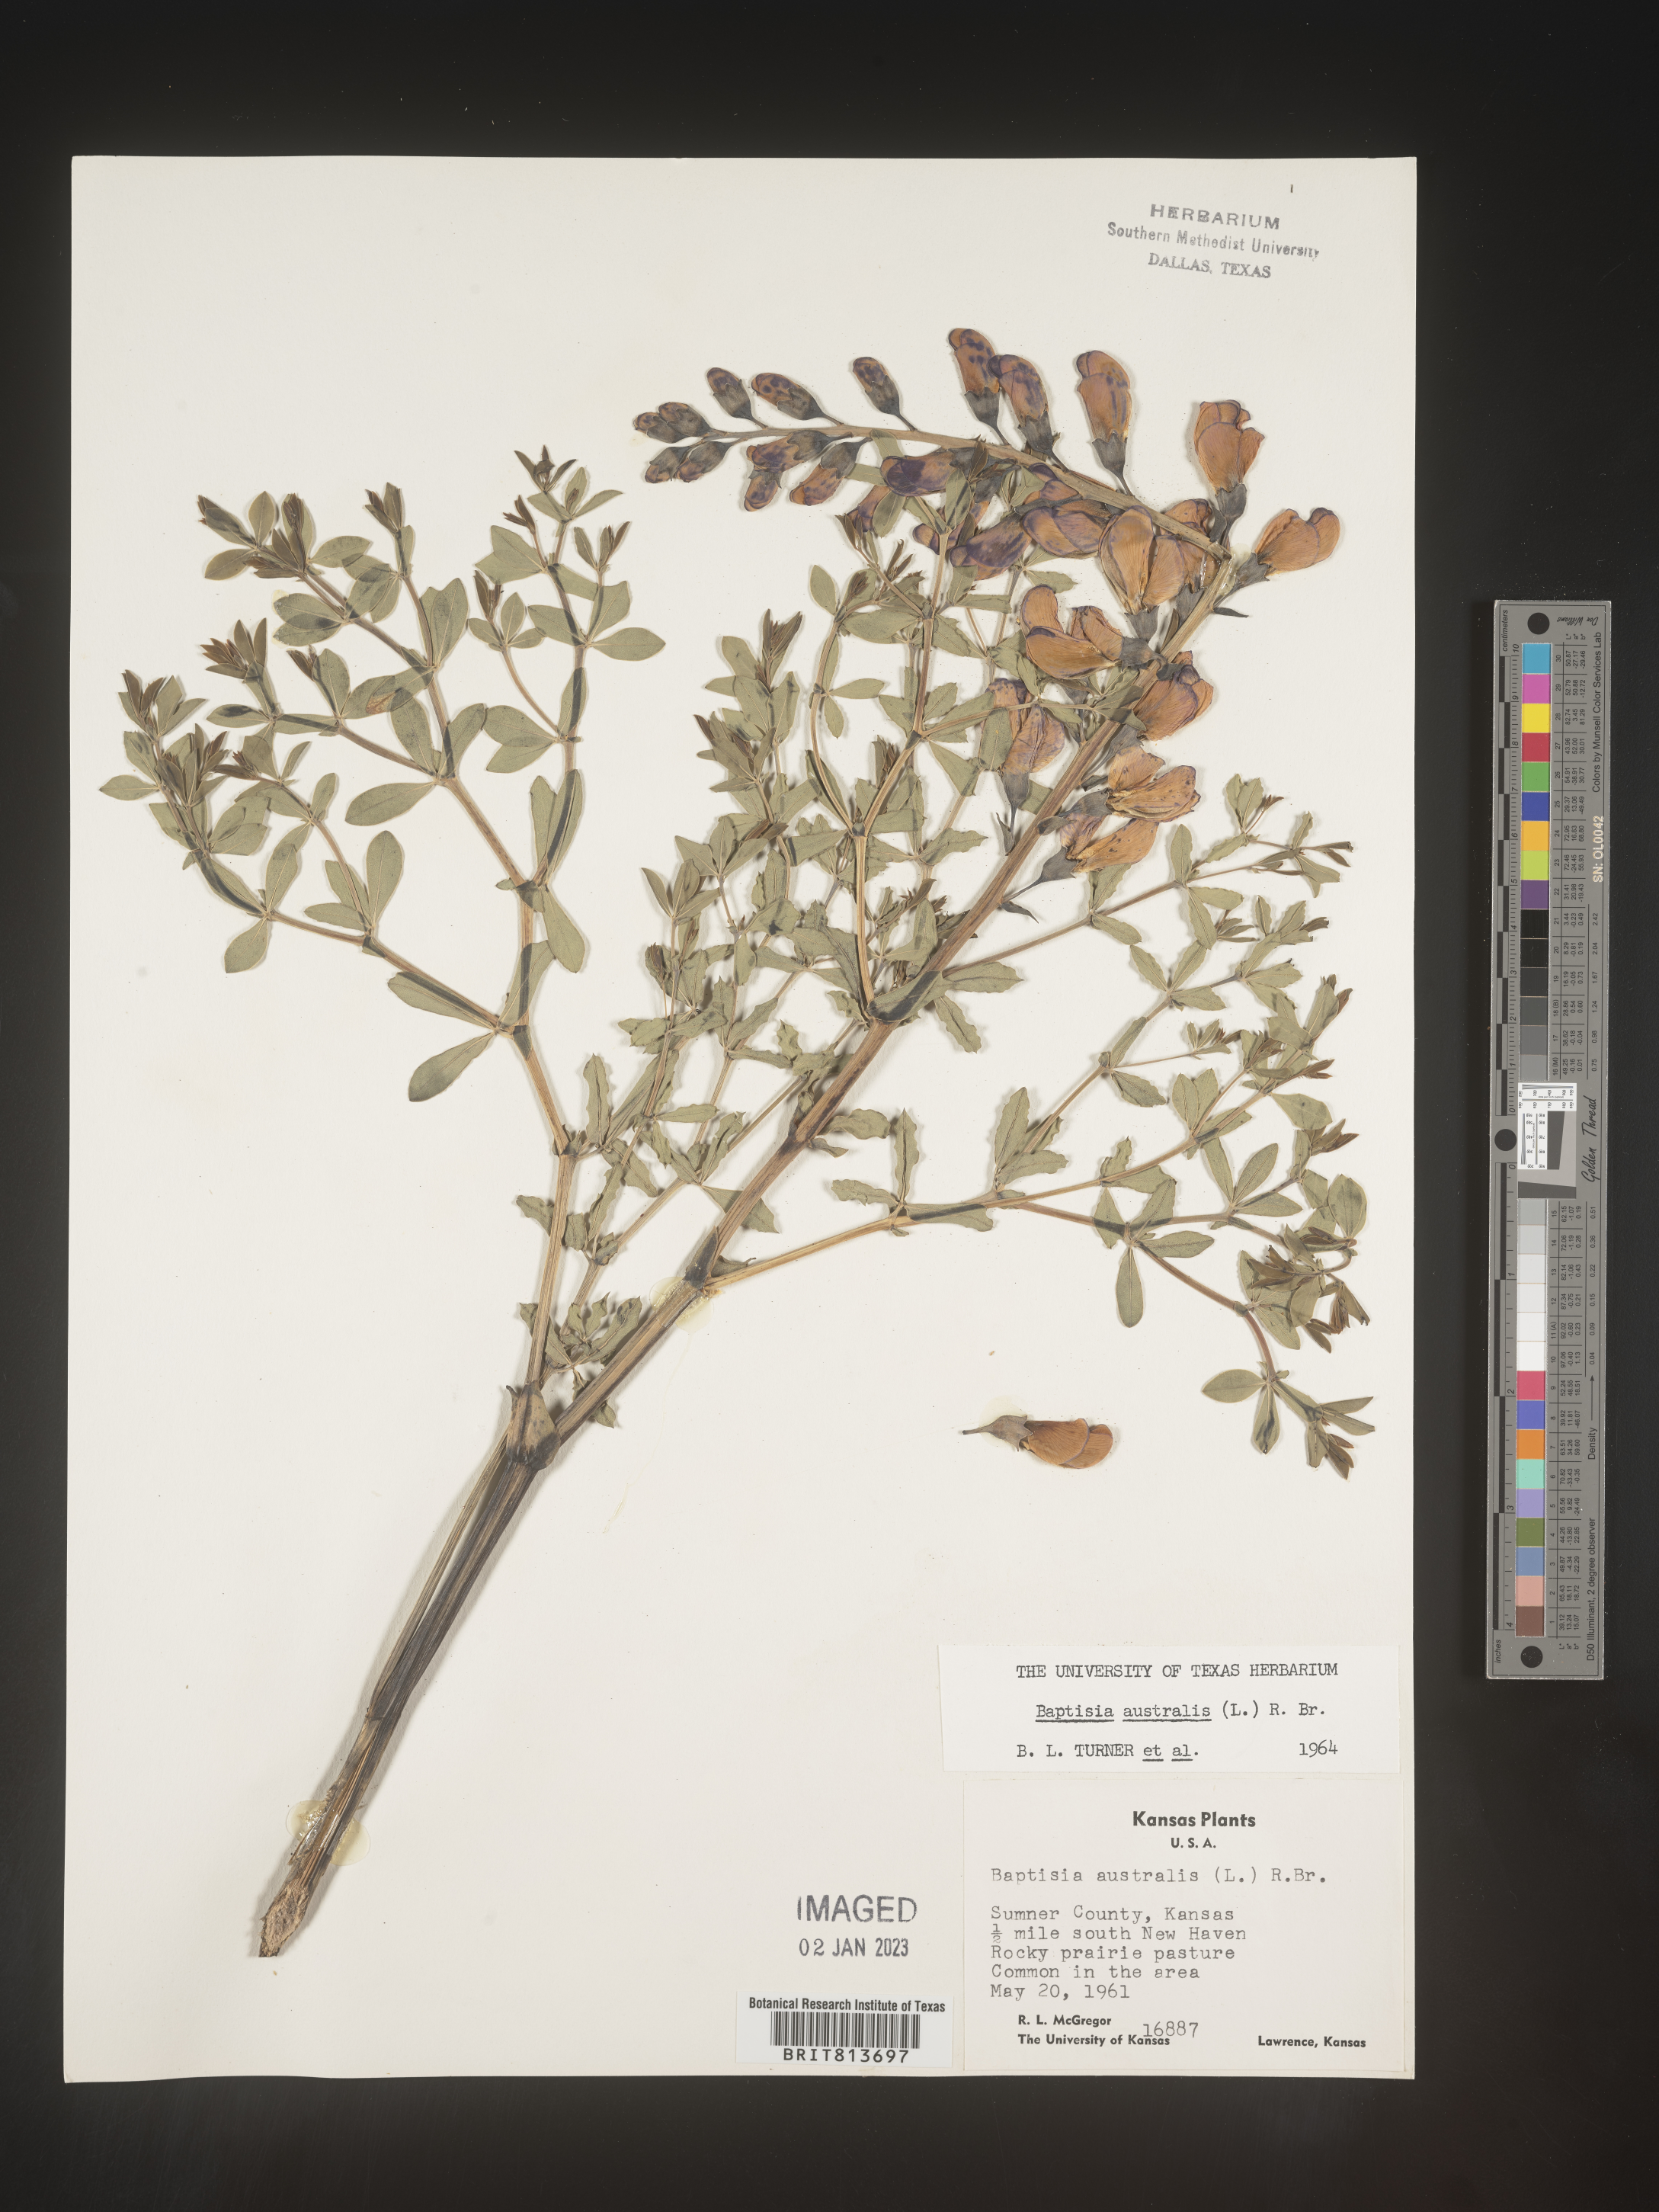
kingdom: Plantae
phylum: Tracheophyta
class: Magnoliopsida
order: Fabales
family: Fabaceae
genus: Baptisia
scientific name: Baptisia australis
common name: Blue false indigo
